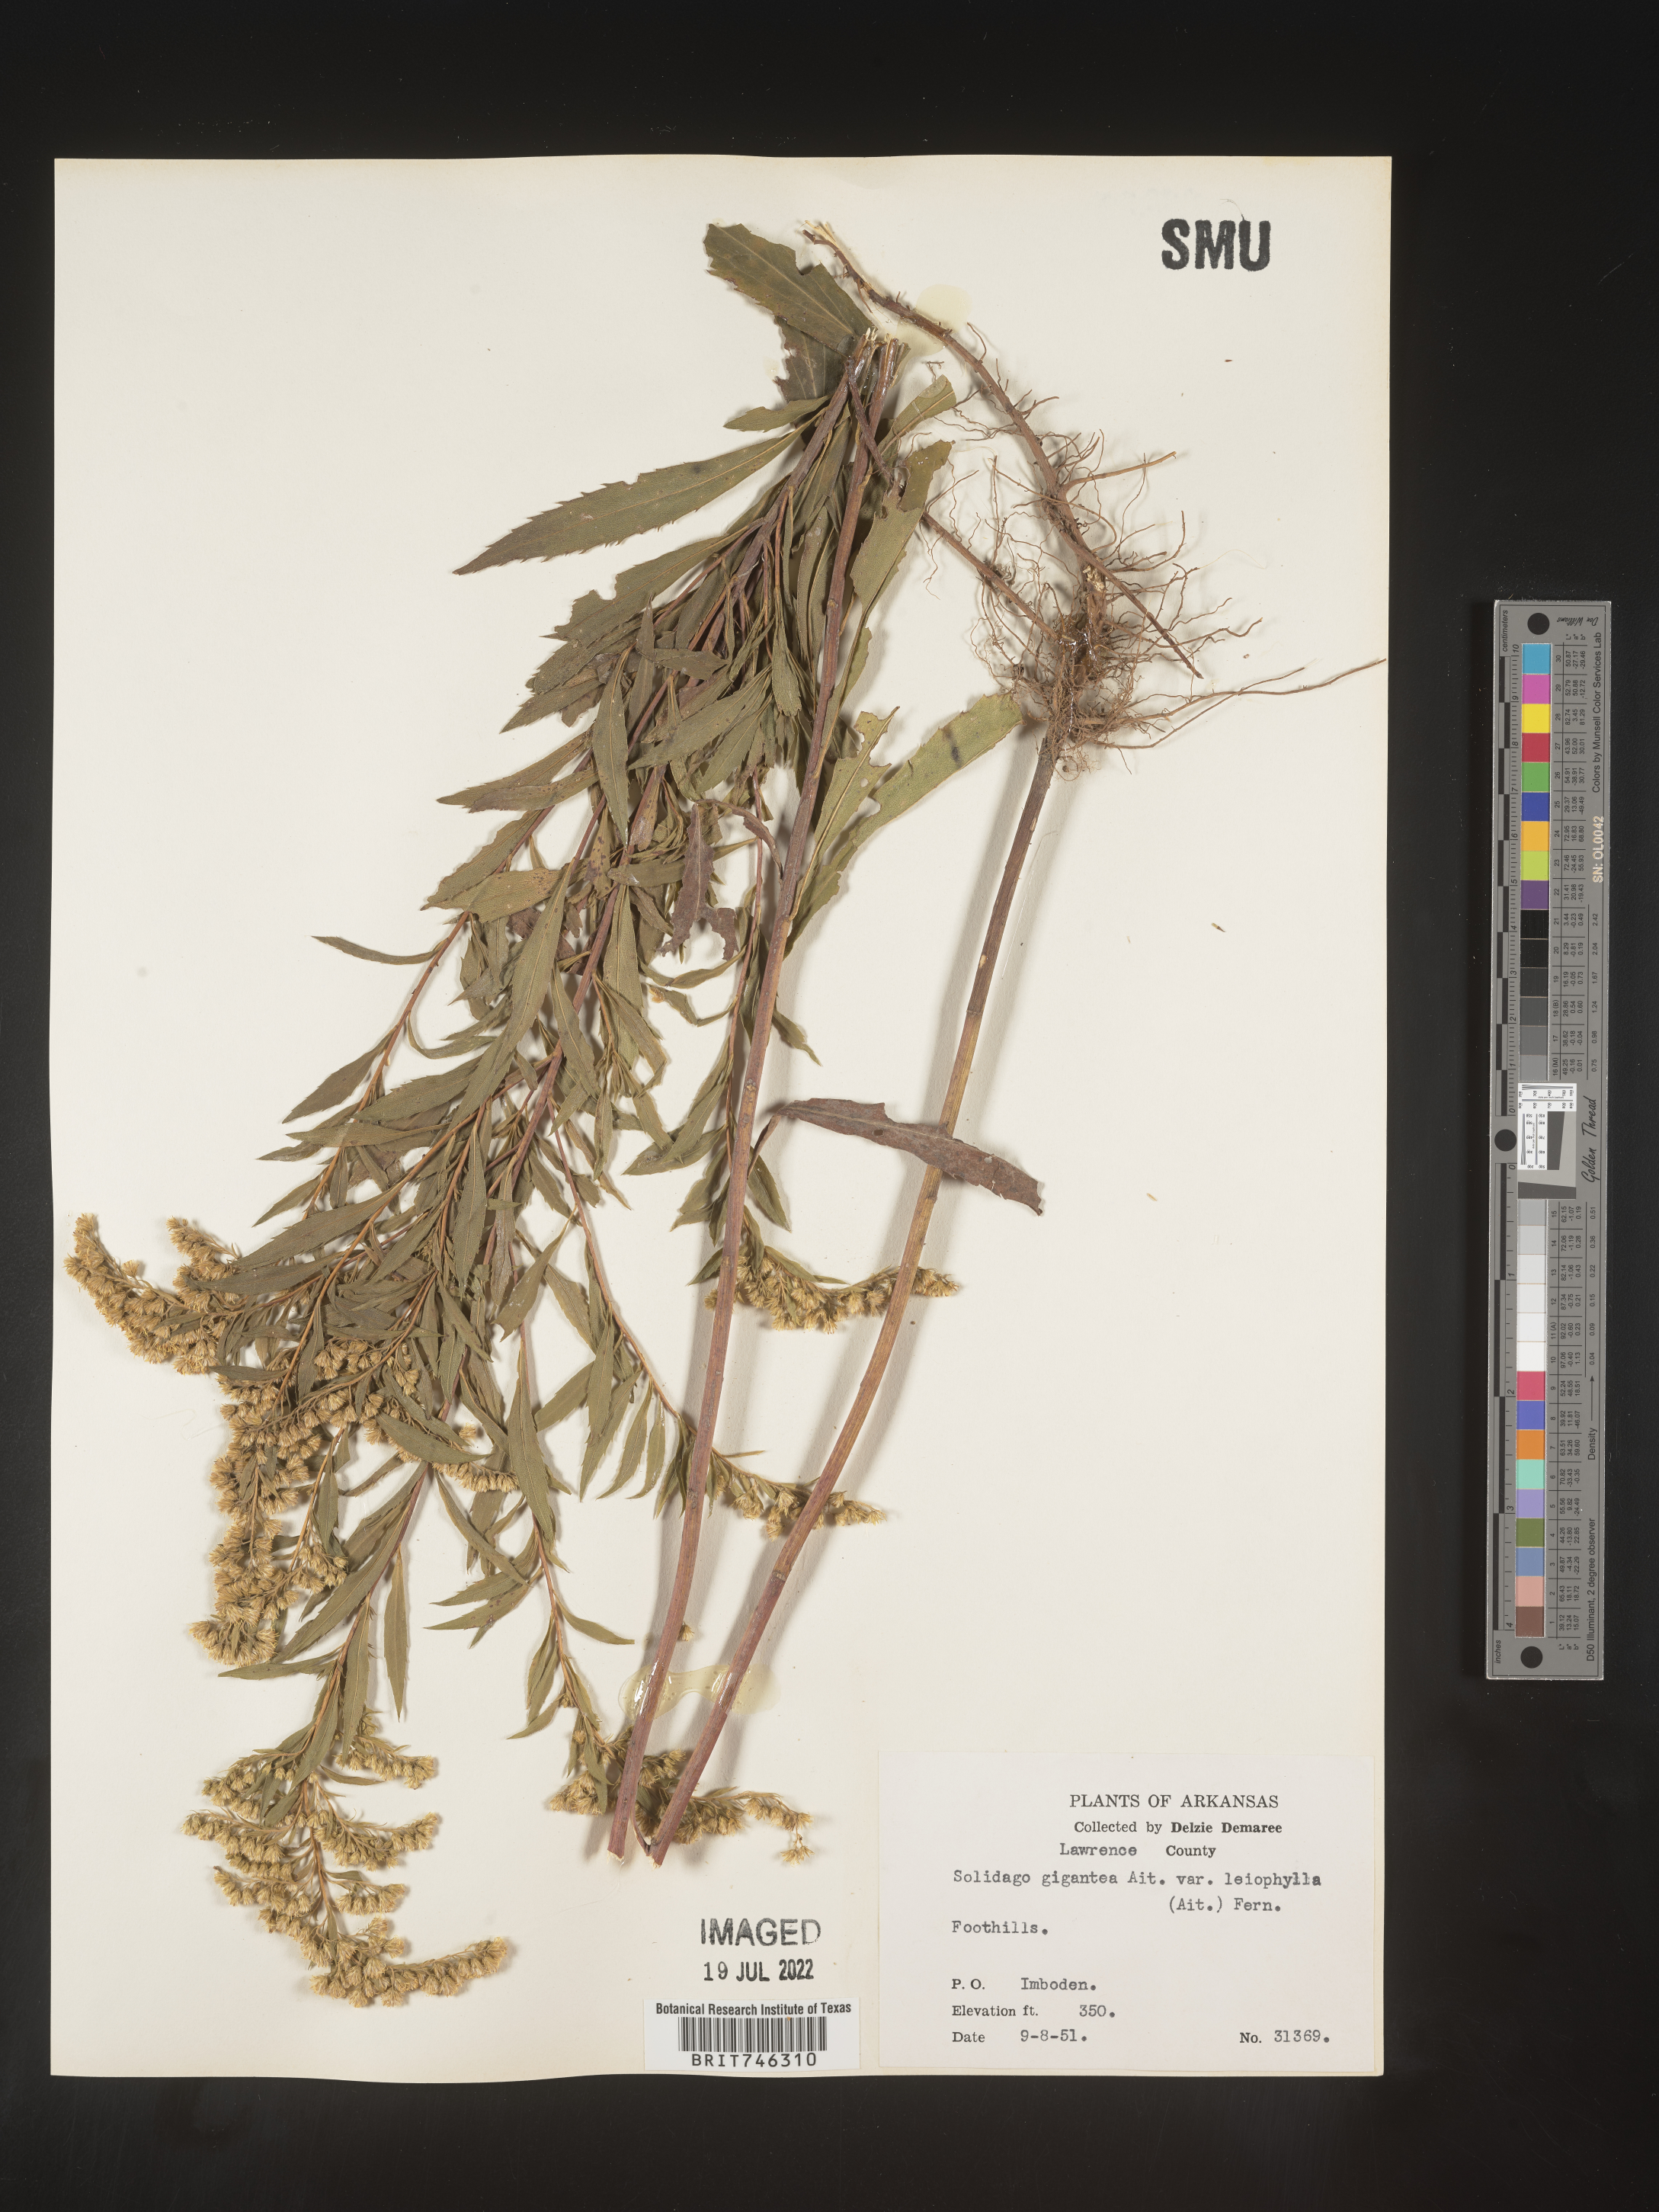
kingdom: Plantae
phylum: Tracheophyta
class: Magnoliopsida
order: Asterales
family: Asteraceae
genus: Solidago
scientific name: Solidago gigantea
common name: Giant goldenrod
